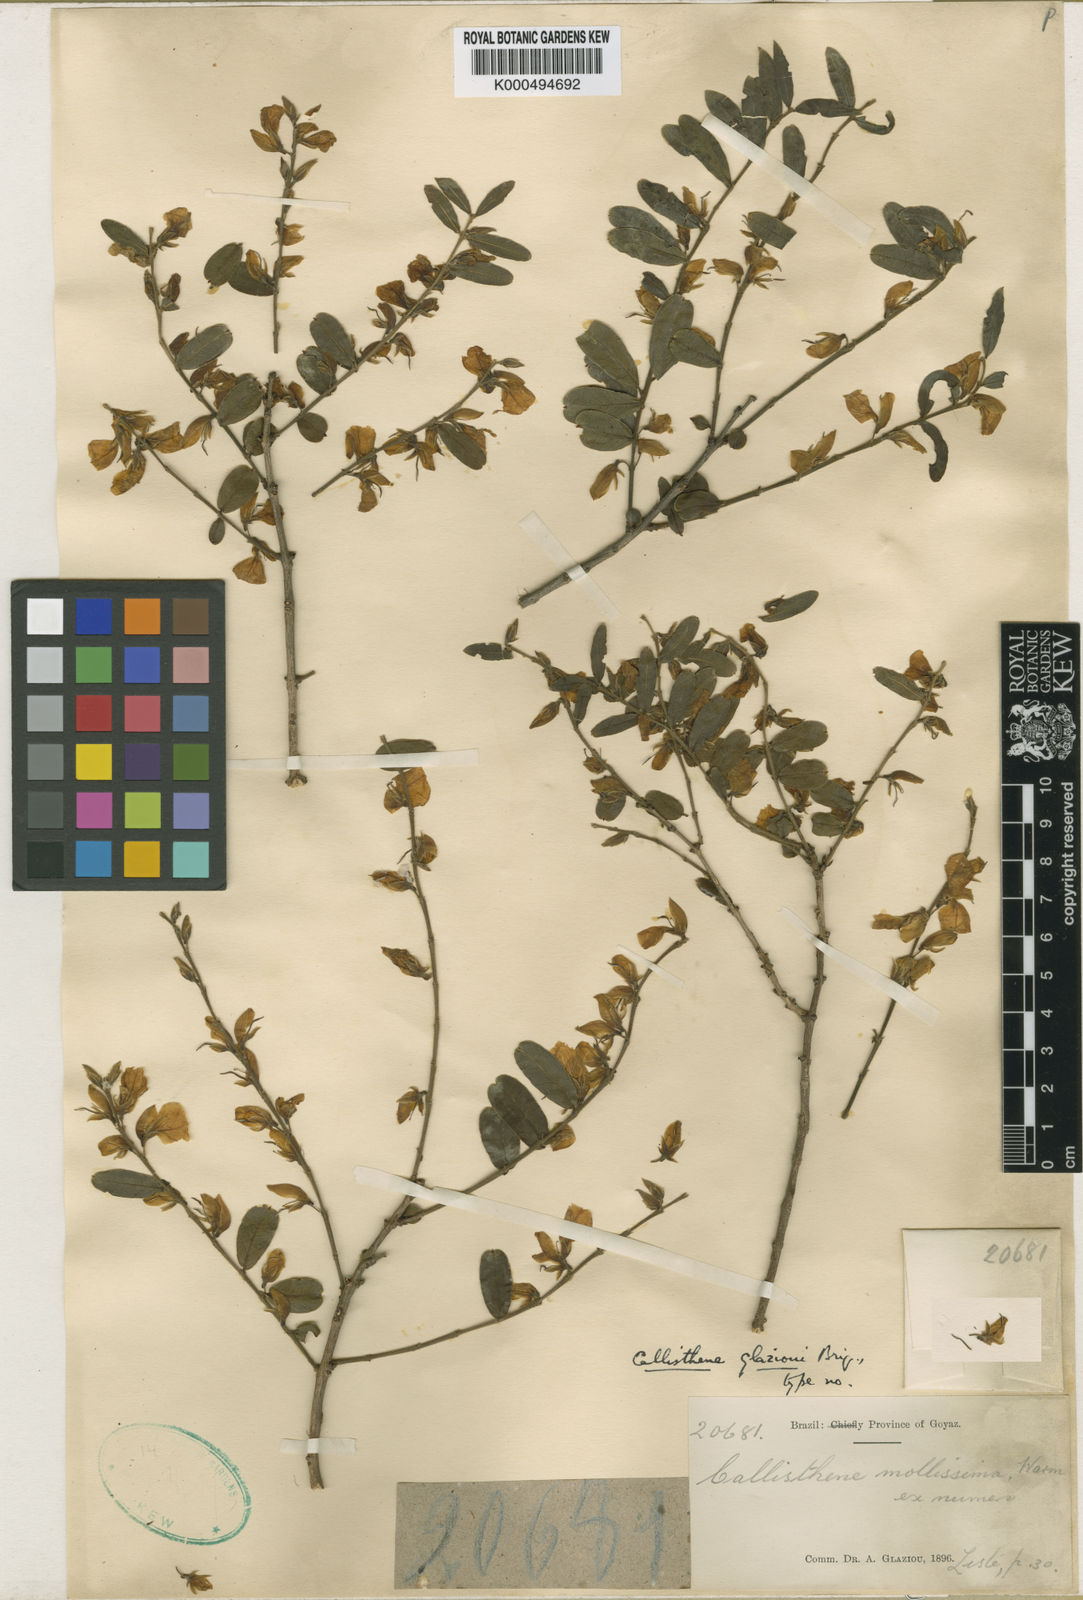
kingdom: Plantae
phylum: Tracheophyta
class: Magnoliopsida
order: Myrtales
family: Vochysiaceae
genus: Callisthene
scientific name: Callisthene major
